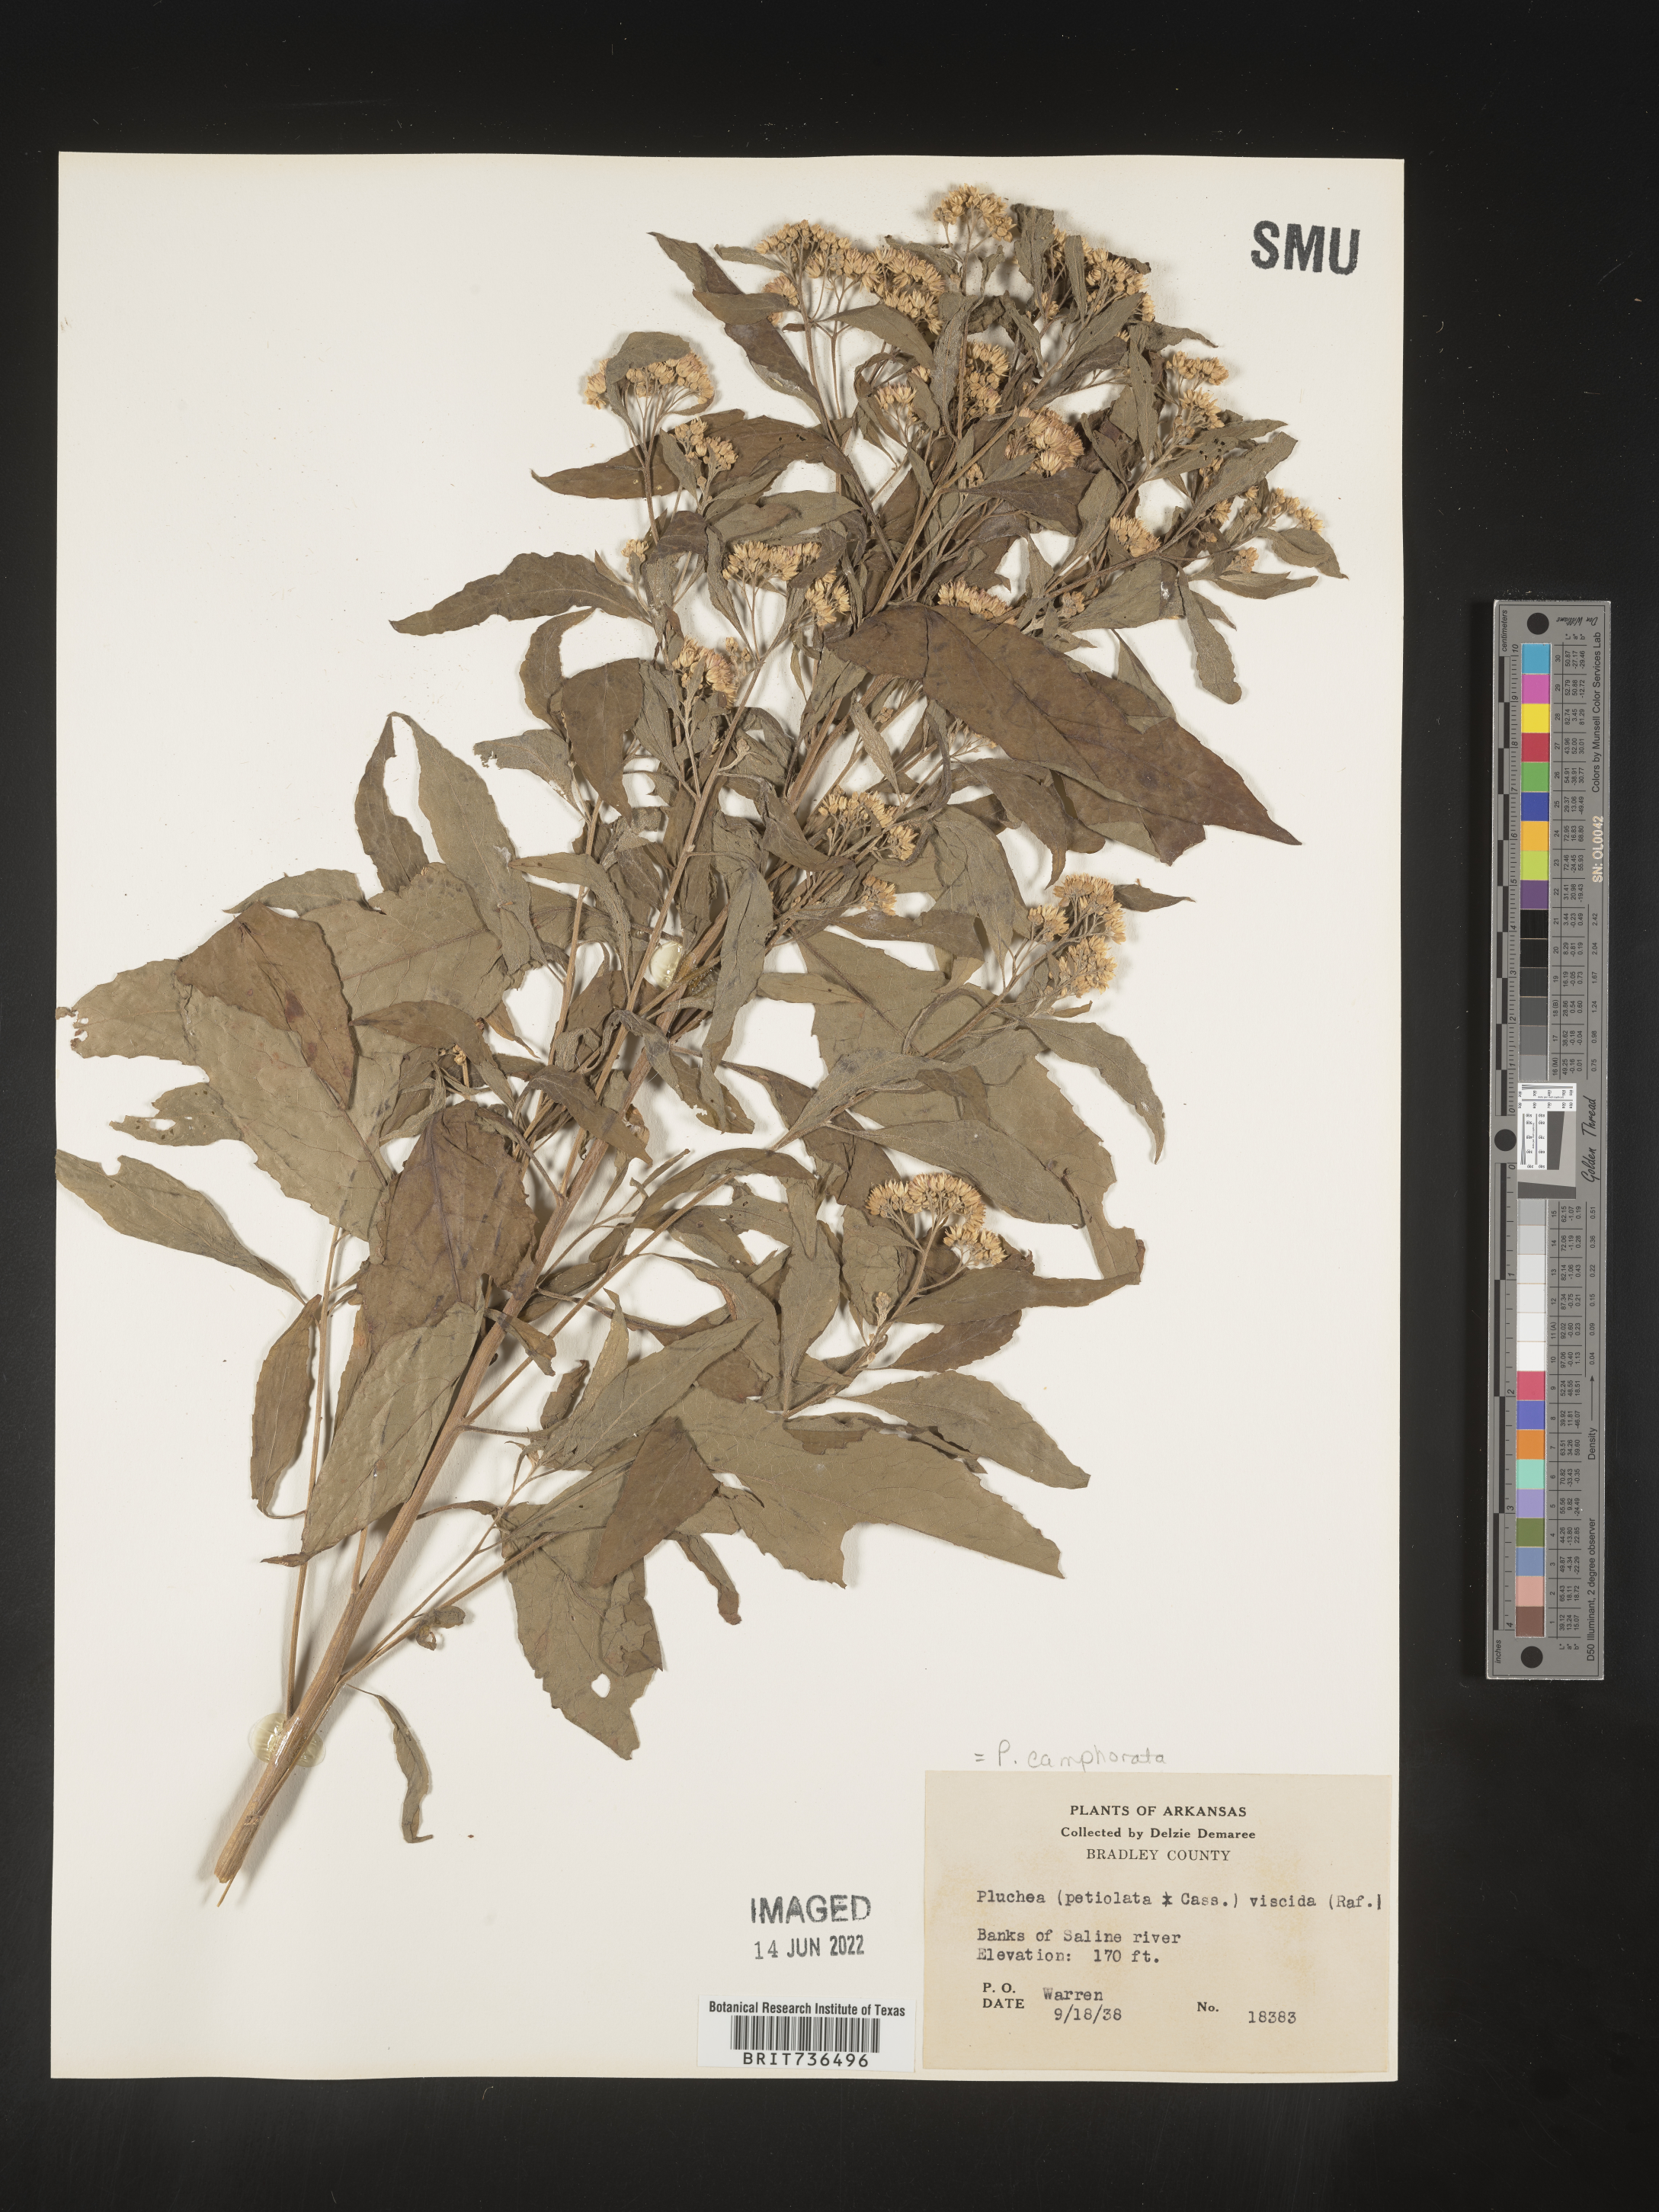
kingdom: Plantae
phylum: Tracheophyta
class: Magnoliopsida
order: Asterales
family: Asteraceae
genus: Pluchea
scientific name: Pluchea camphorata
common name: Camphor pluchea
